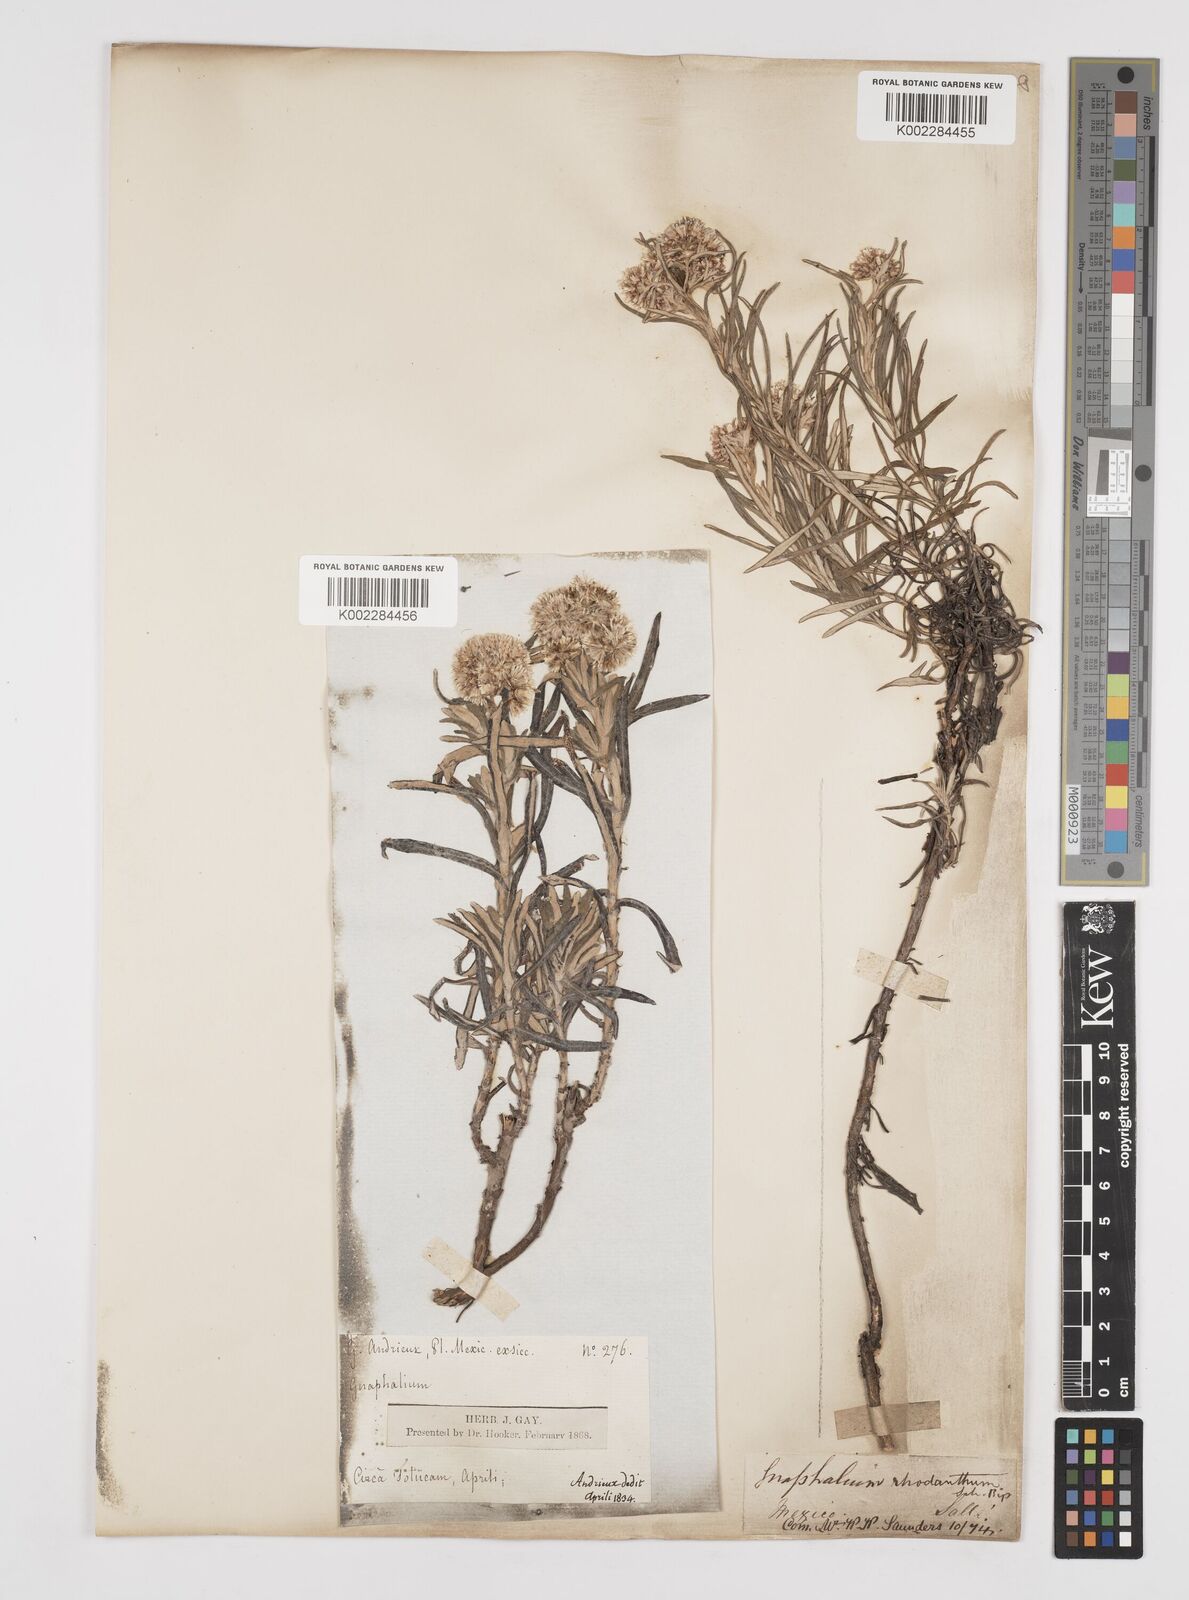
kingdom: Plantae
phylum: Tracheophyta
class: Magnoliopsida
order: Asterales
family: Asteraceae
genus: Gnaphaliothamnus
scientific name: Gnaphaliothamnus salicifolius
